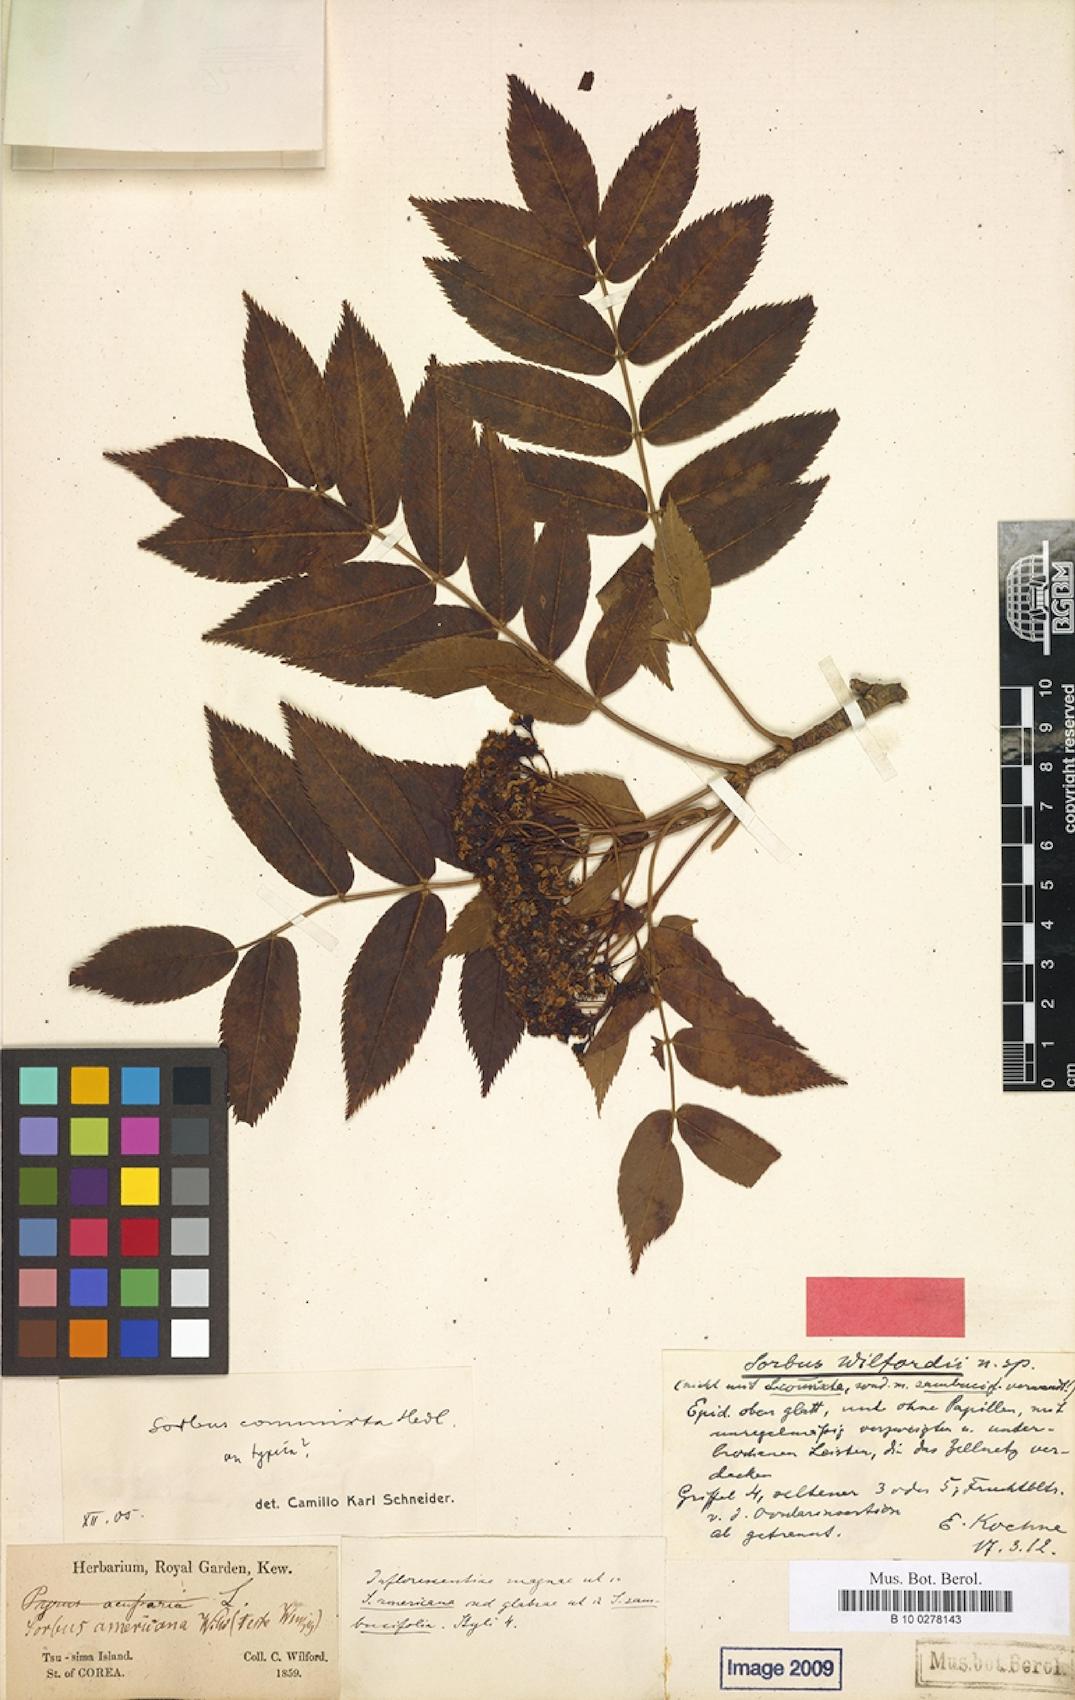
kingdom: Plantae
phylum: Tracheophyta
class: Magnoliopsida
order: Rosales
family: Rosaceae
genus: Sorbus
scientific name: Sorbus commixta
